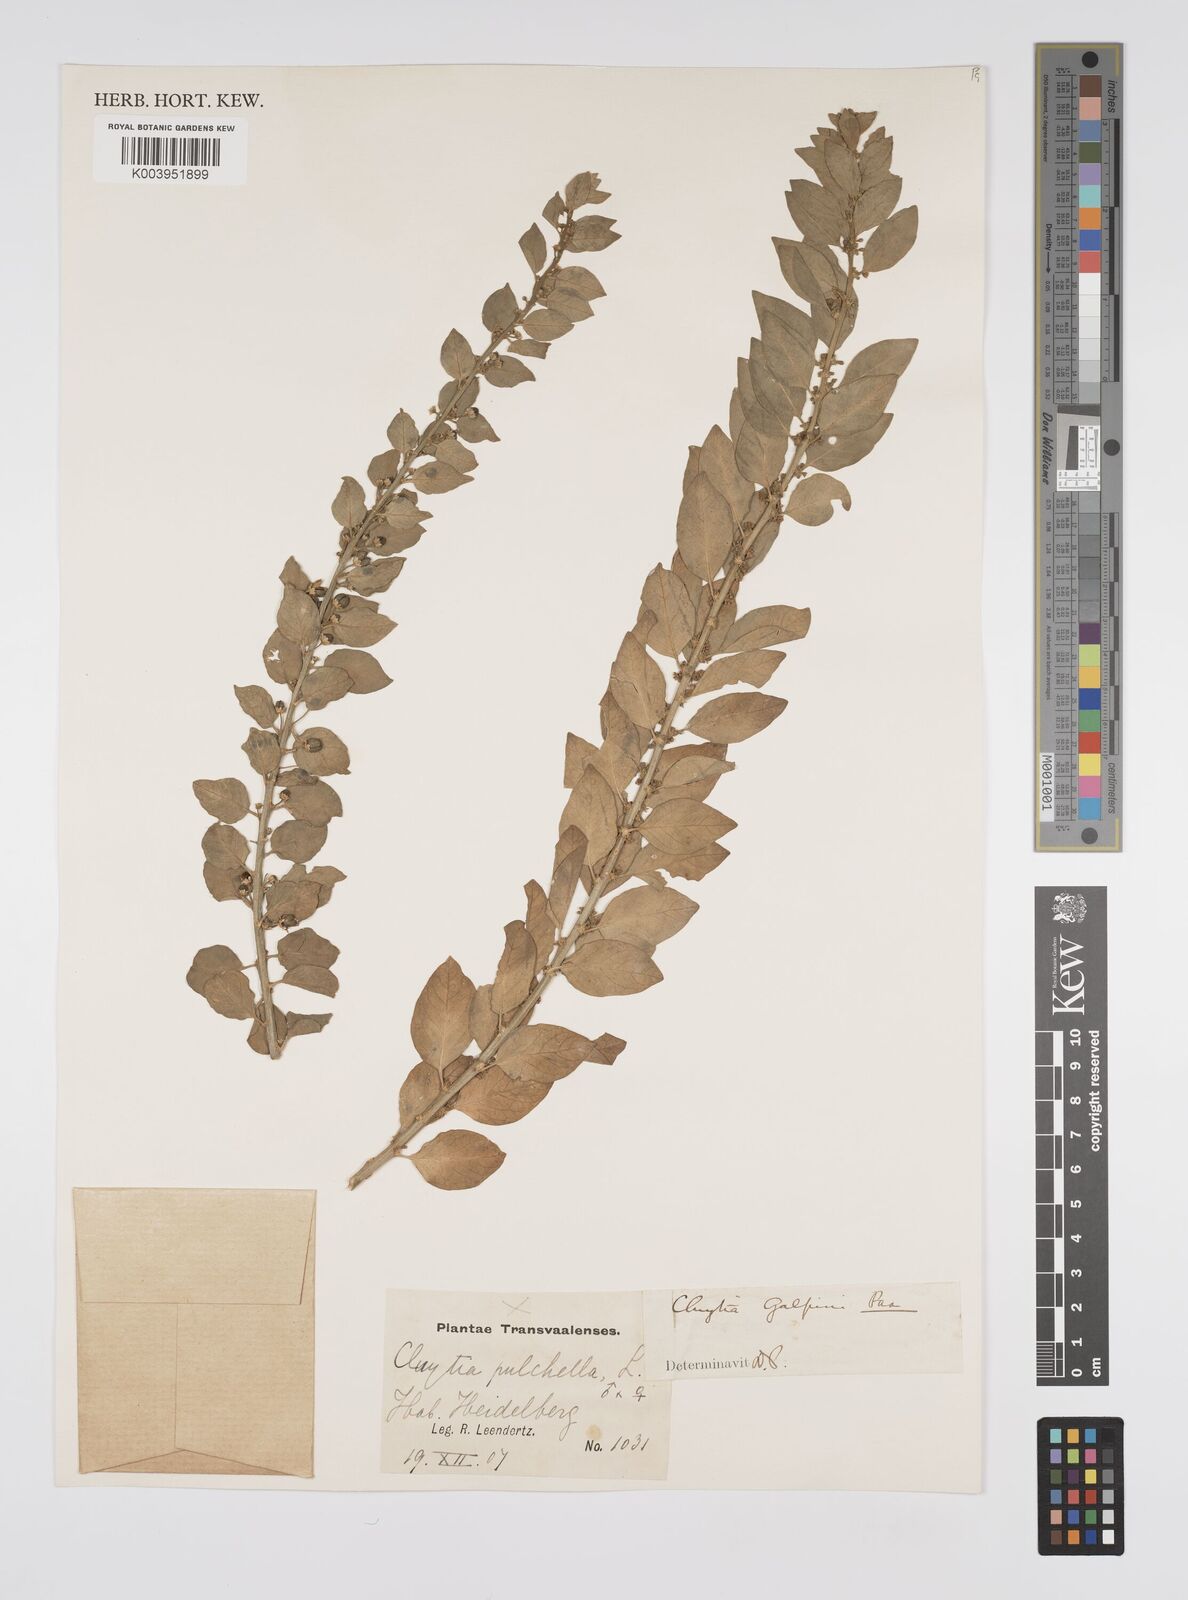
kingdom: Plantae
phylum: Tracheophyta
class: Magnoliopsida
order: Malpighiales
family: Peraceae
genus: Clutia
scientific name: Clutia galpinii
